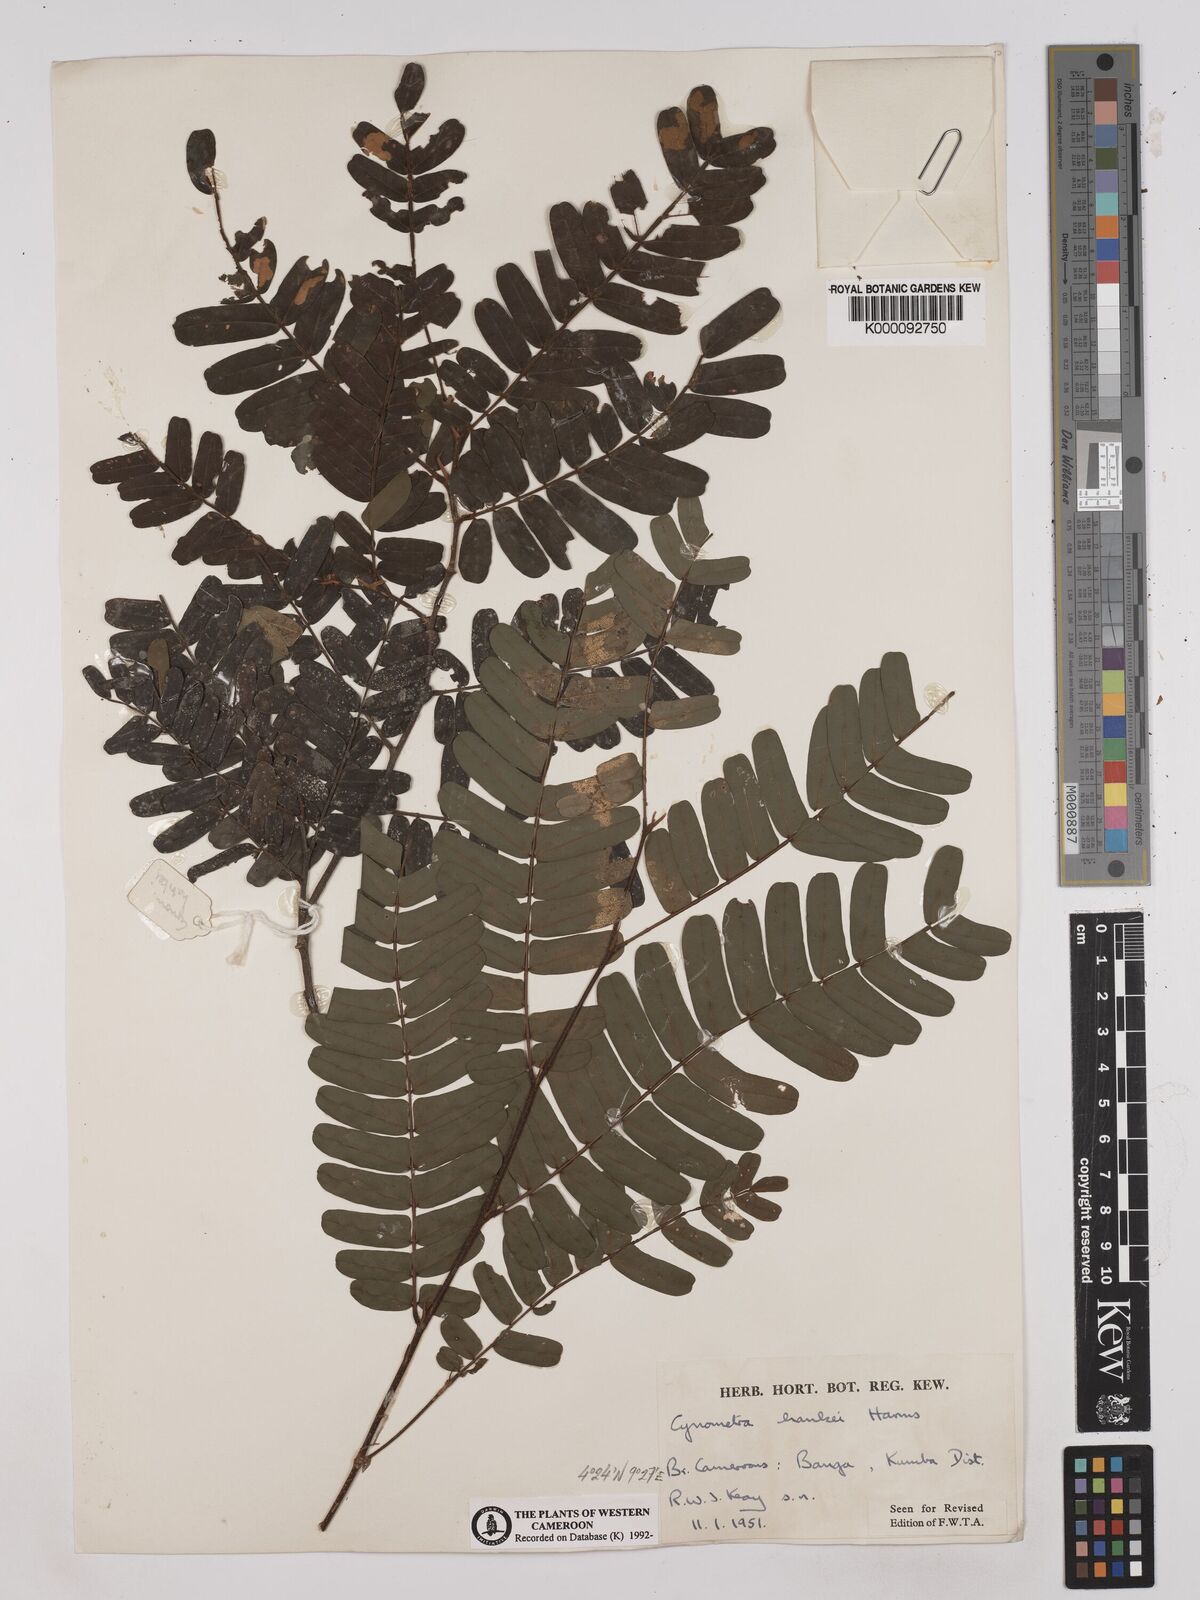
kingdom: Plantae
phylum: Tracheophyta
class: Magnoliopsida
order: Fabales
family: Fabaceae
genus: Cynometra
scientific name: Cynometra hankei
